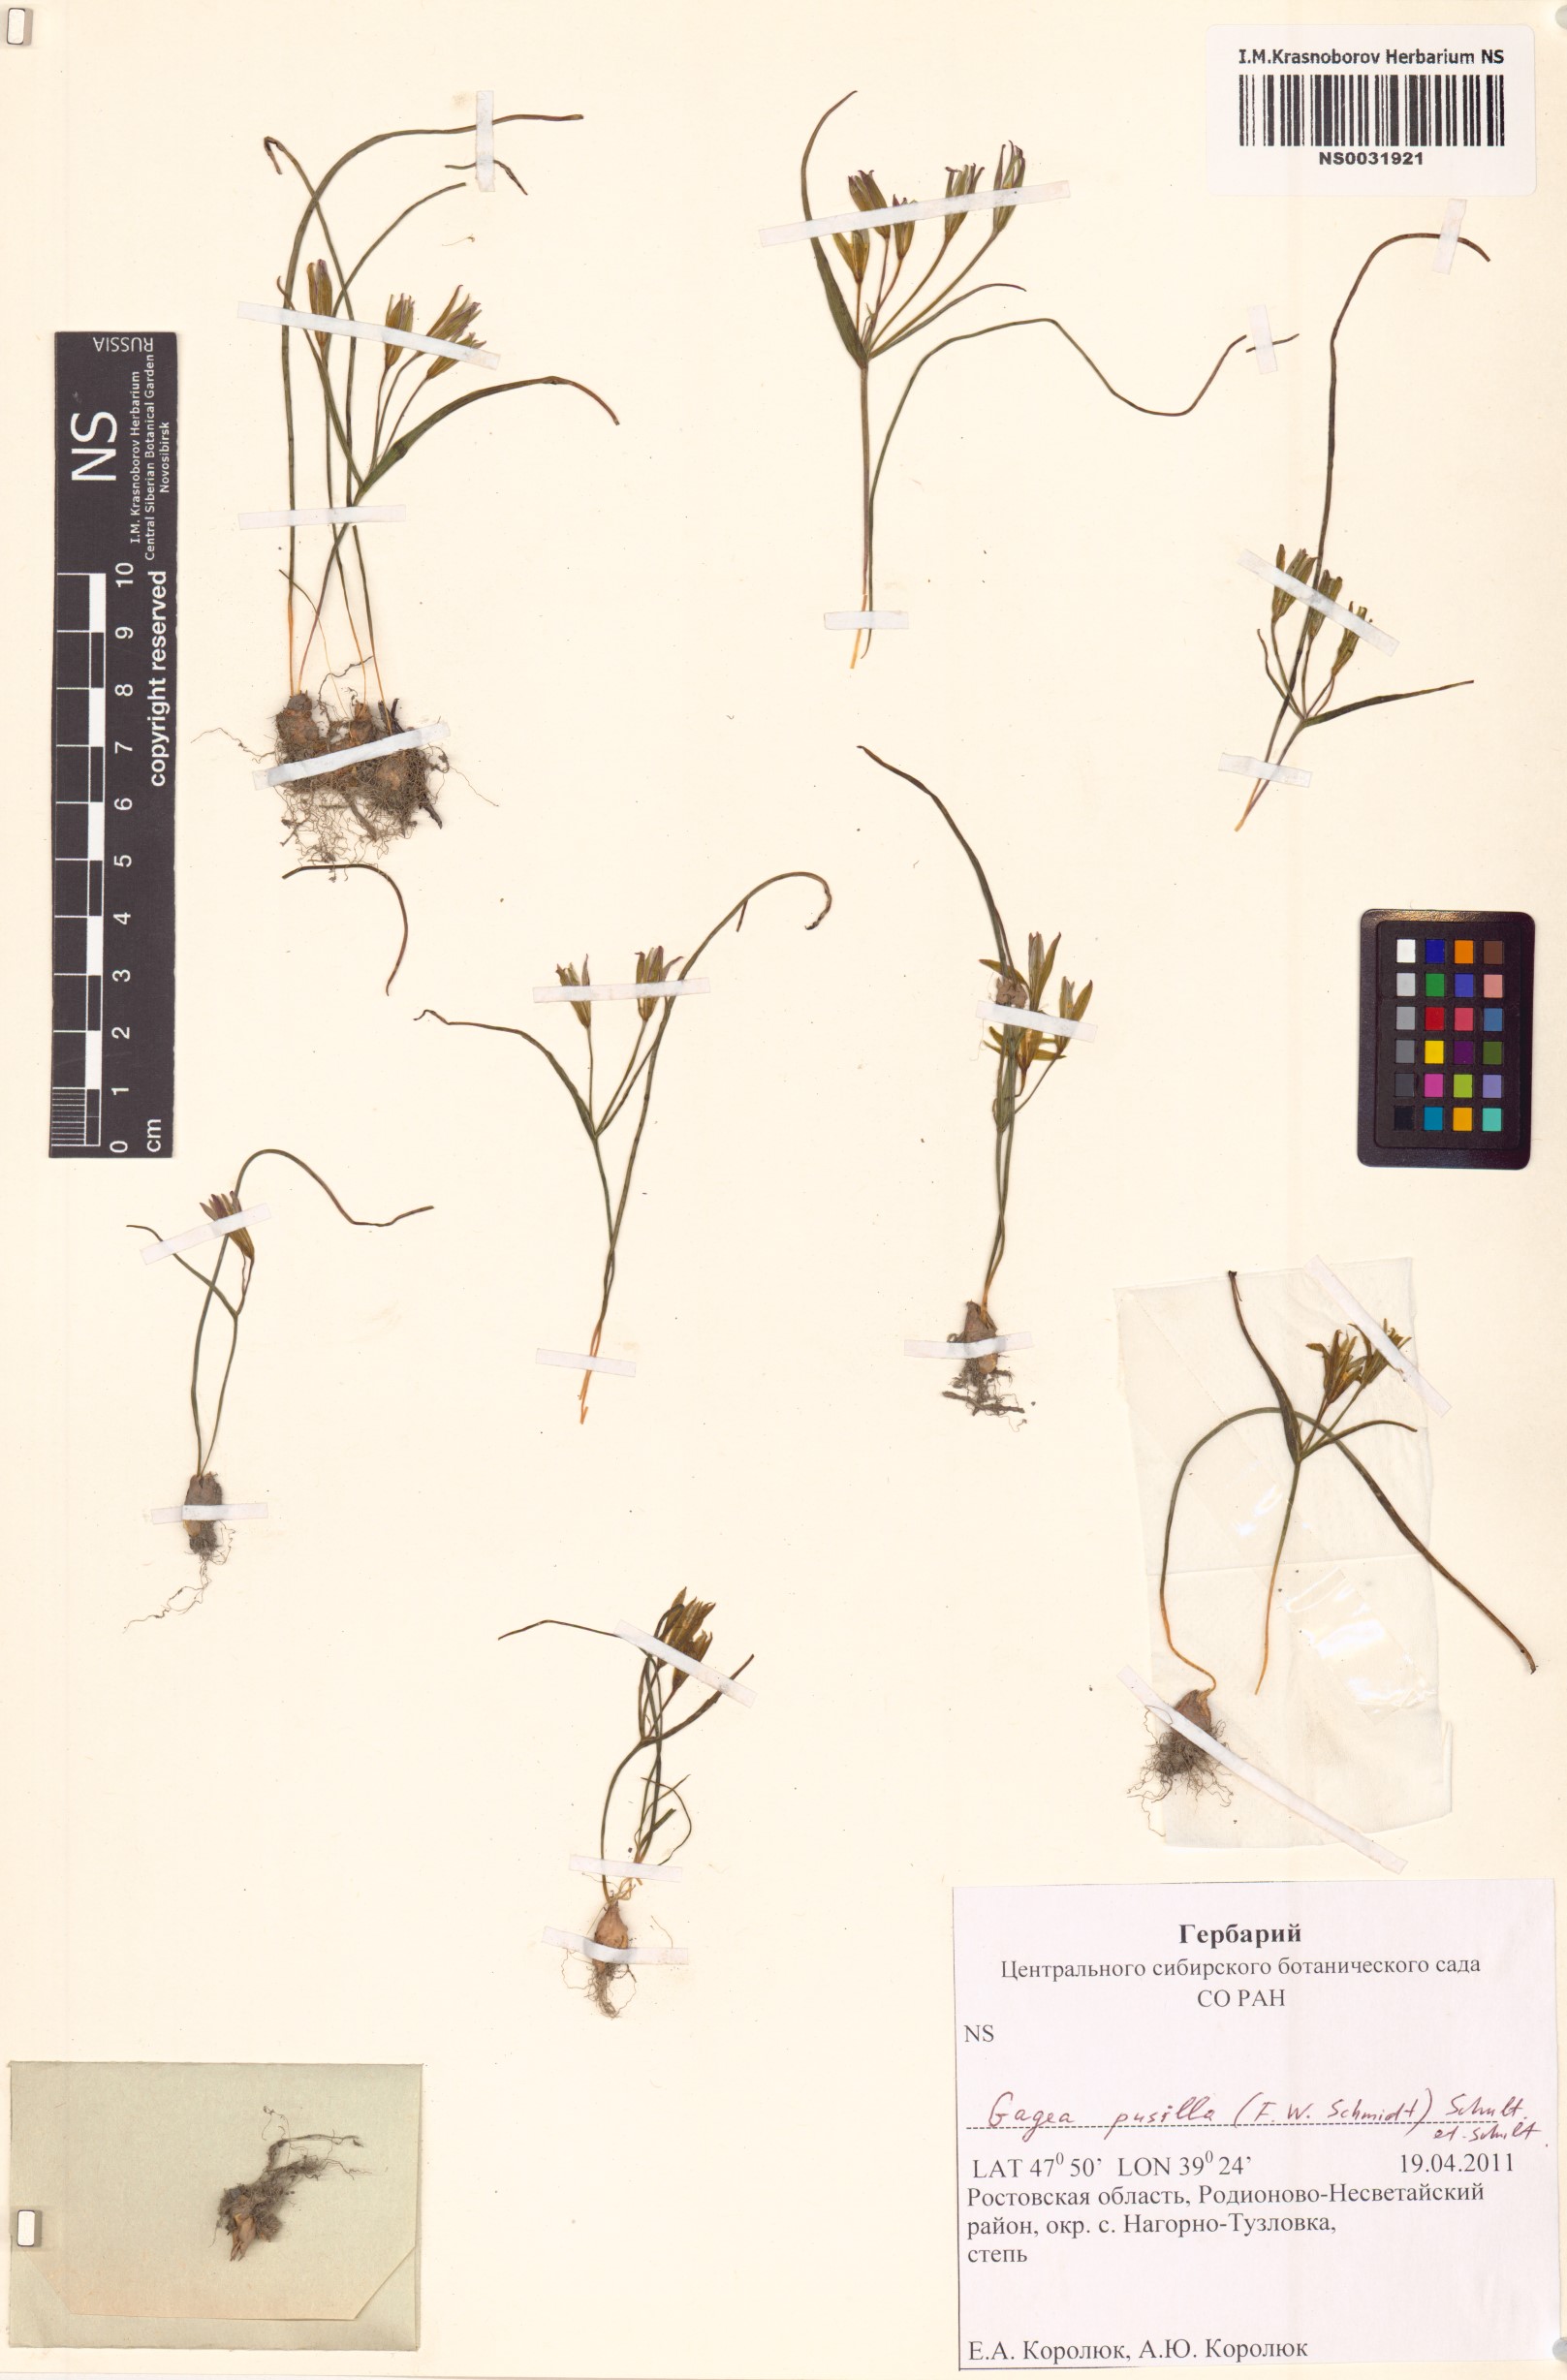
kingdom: Plantae
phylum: Tracheophyta
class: Liliopsida
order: Liliales
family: Liliaceae
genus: Gagea
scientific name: Gagea pusilla
